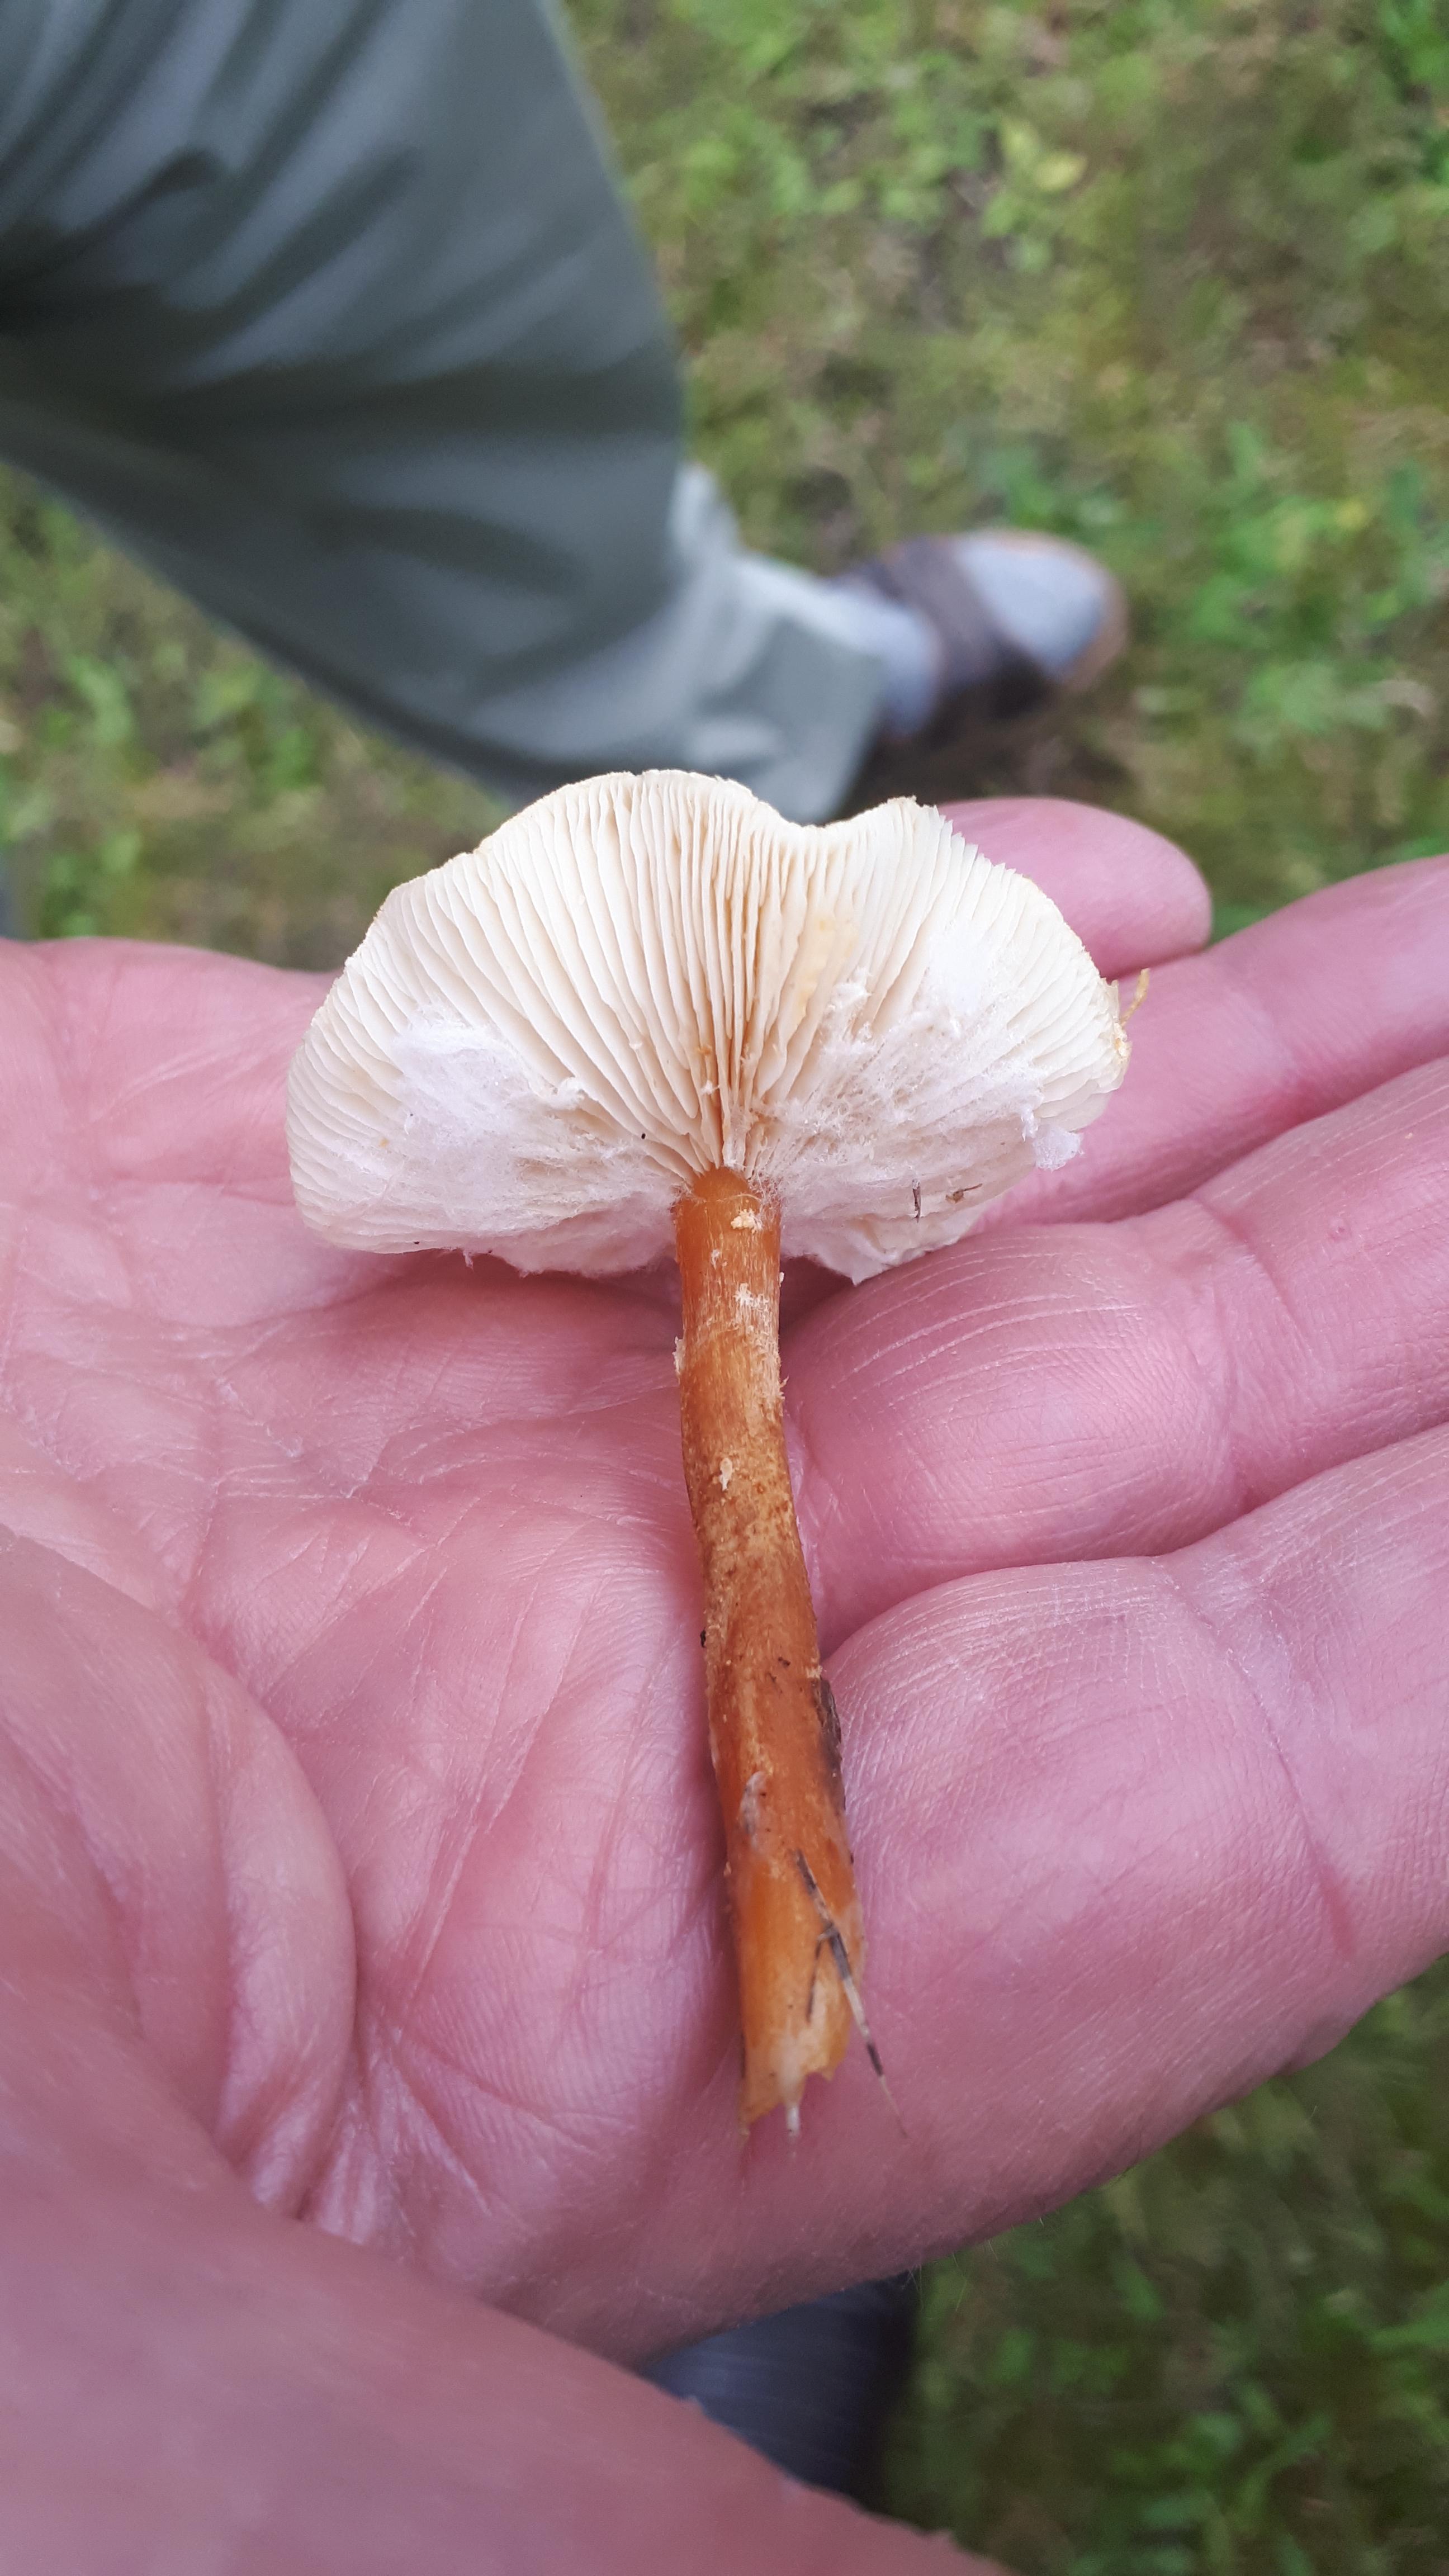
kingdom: Fungi
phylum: Basidiomycota
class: Agaricomycetes
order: Agaricales
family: Tricholomataceae
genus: Cystoderma
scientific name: Cystoderma amianthinum
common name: okkergul grynhat
